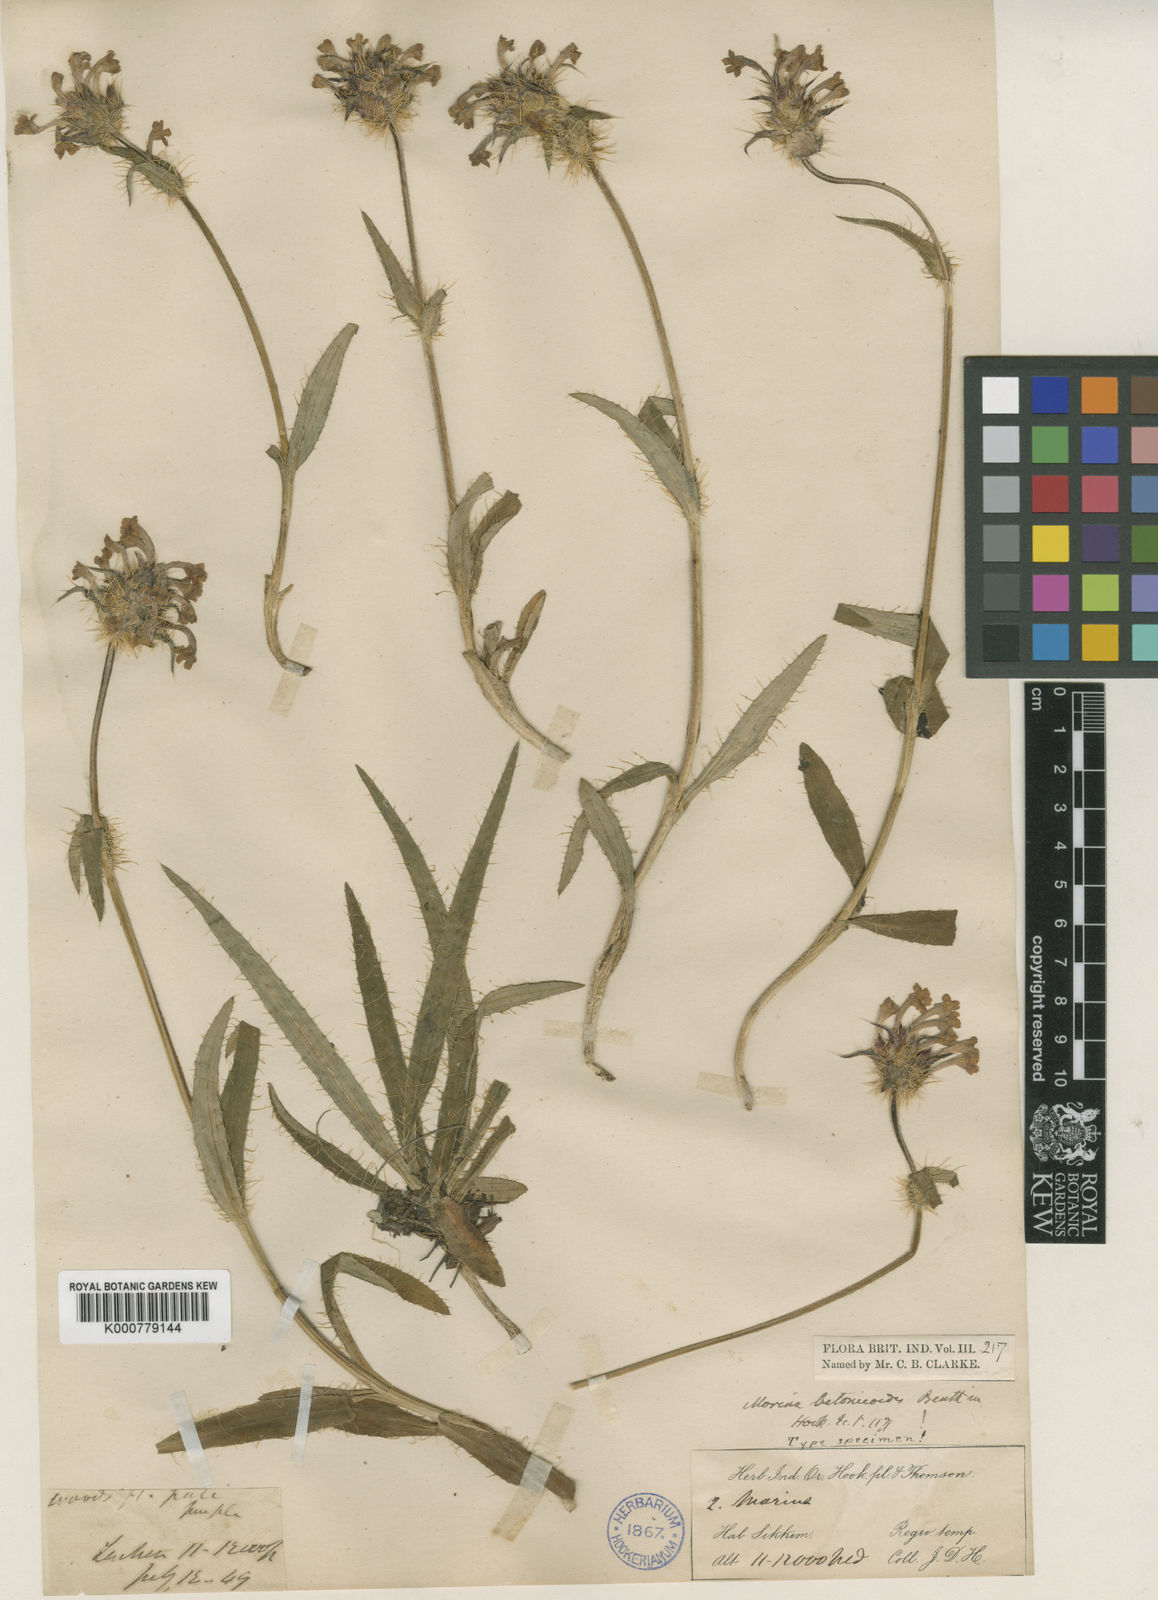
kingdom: Plantae
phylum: Tracheophyta
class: Magnoliopsida
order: Dipsacales
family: Caprifoliaceae
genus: Acanthocalyx
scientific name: Acanthocalyx nepalensis
